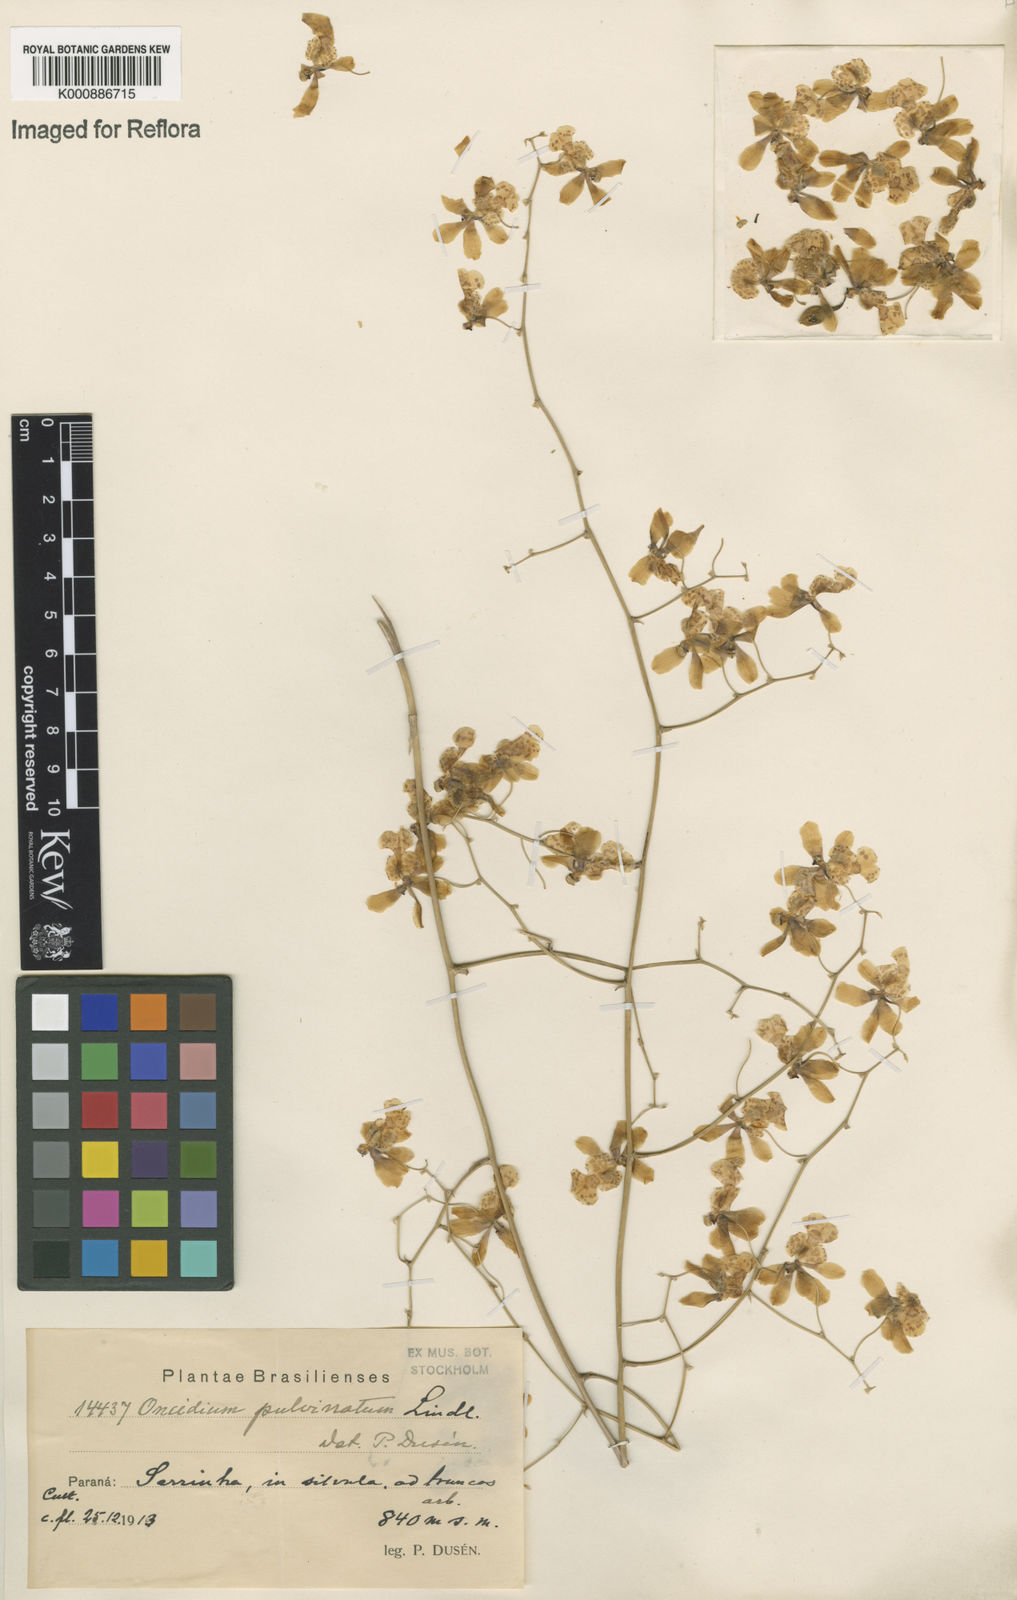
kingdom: Plantae
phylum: Tracheophyta
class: Liliopsida
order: Asparagales
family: Orchidaceae
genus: Grandiphyllum
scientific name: Grandiphyllum divaricatum
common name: Mule-ear orchid
